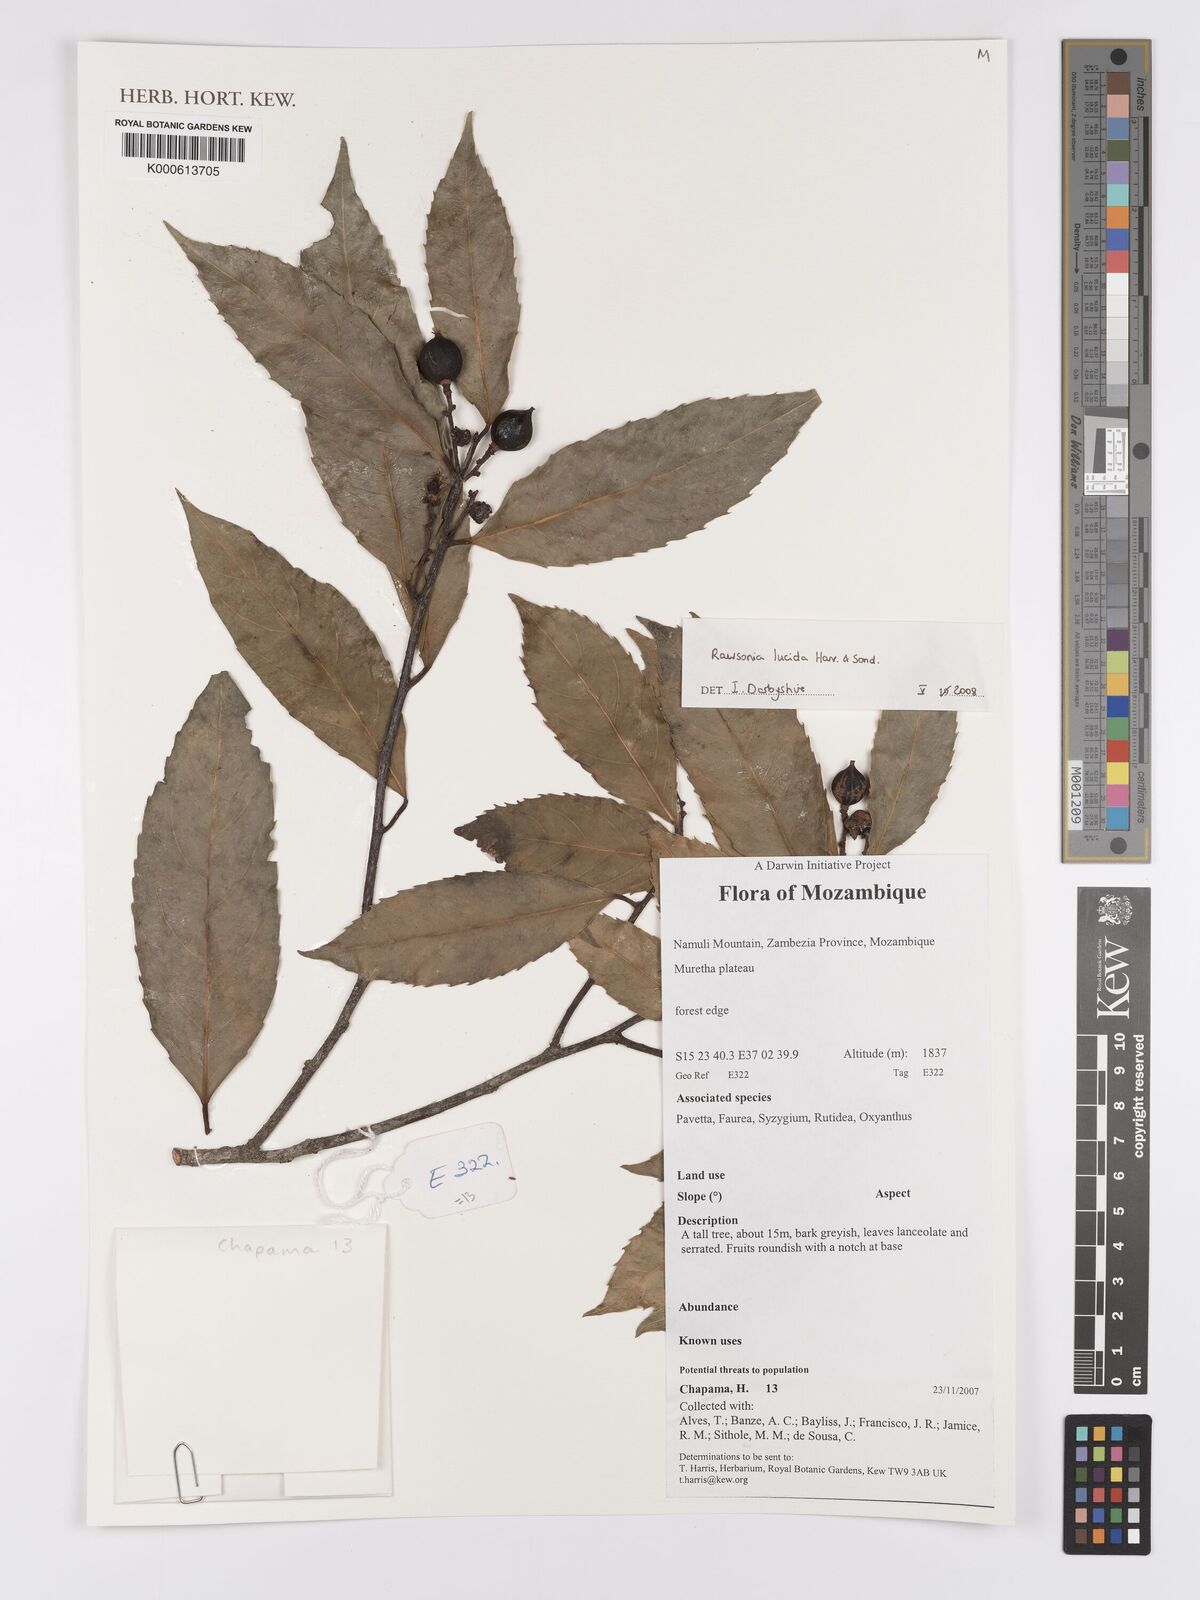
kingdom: Plantae
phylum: Tracheophyta
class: Magnoliopsida
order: Malpighiales
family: Achariaceae
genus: Rawsonia
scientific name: Rawsonia lucida
